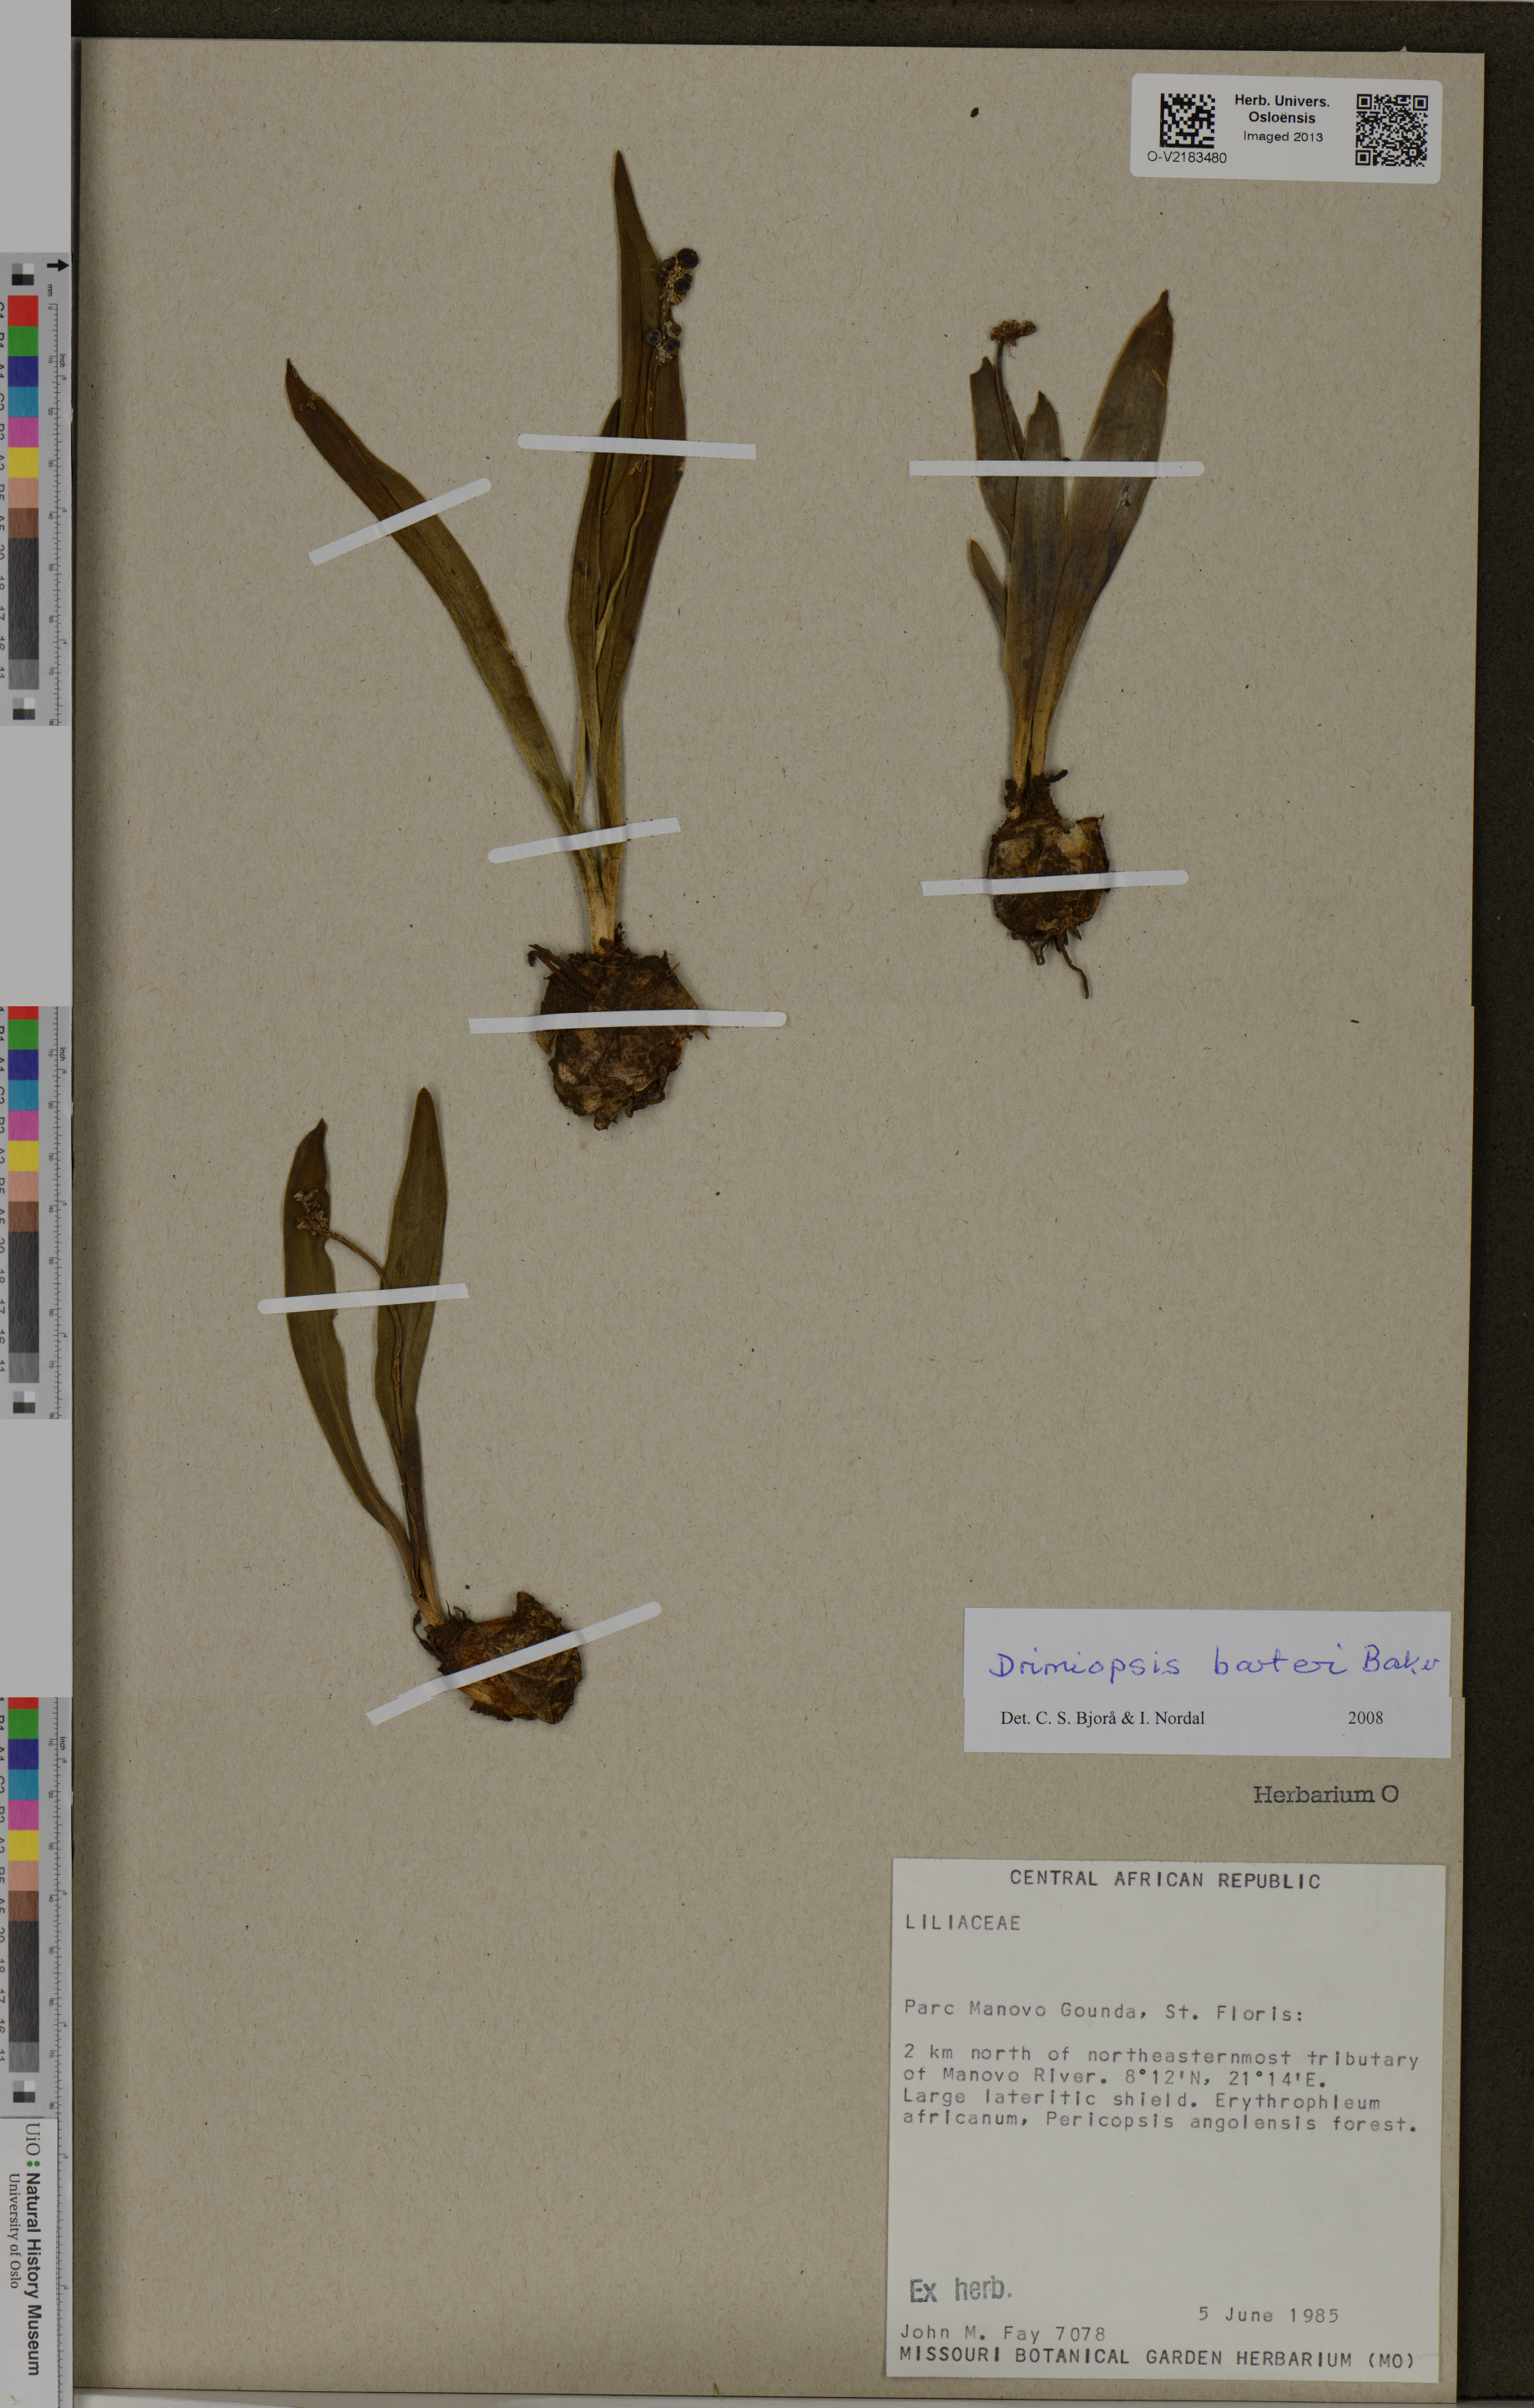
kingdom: Plantae
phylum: Tracheophyta
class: Liliopsida
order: Asparagales
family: Asparagaceae
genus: Drimiopsis
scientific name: Drimiopsis barteri
